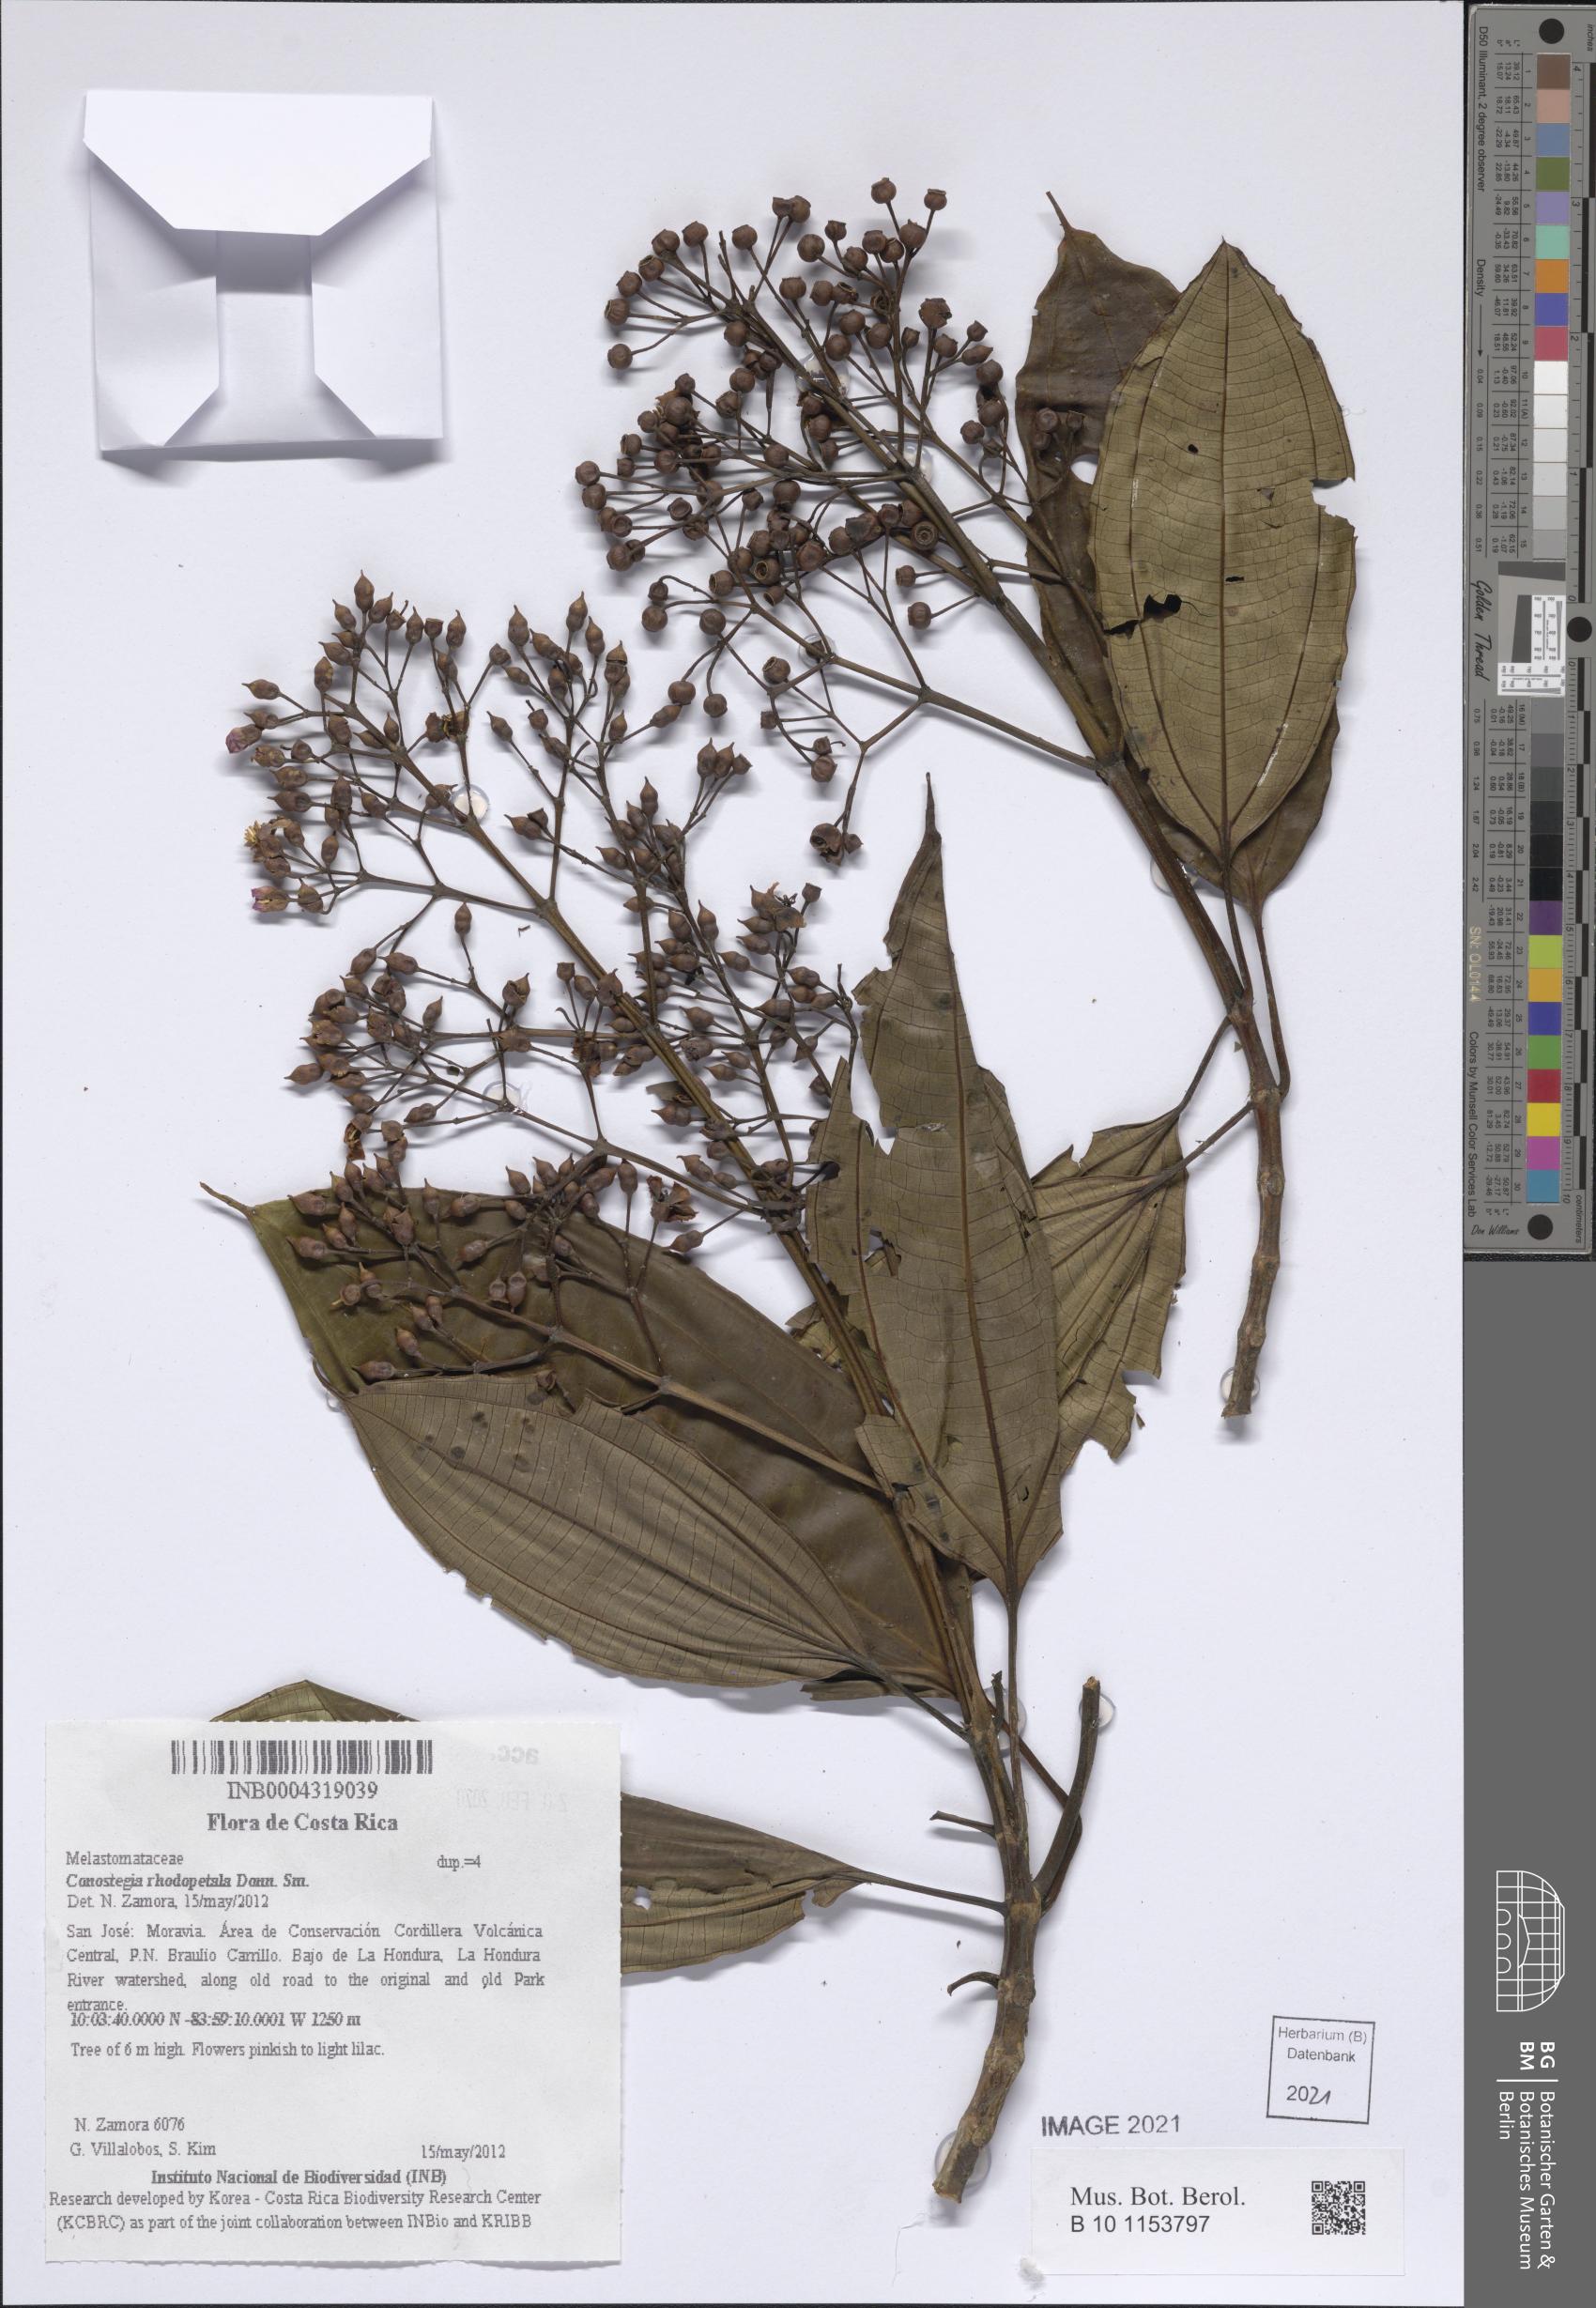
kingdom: Plantae
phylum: Tracheophyta
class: Magnoliopsida
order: Myrtales
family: Melastomataceae
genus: Miconia
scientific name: Miconia rhodopetala
